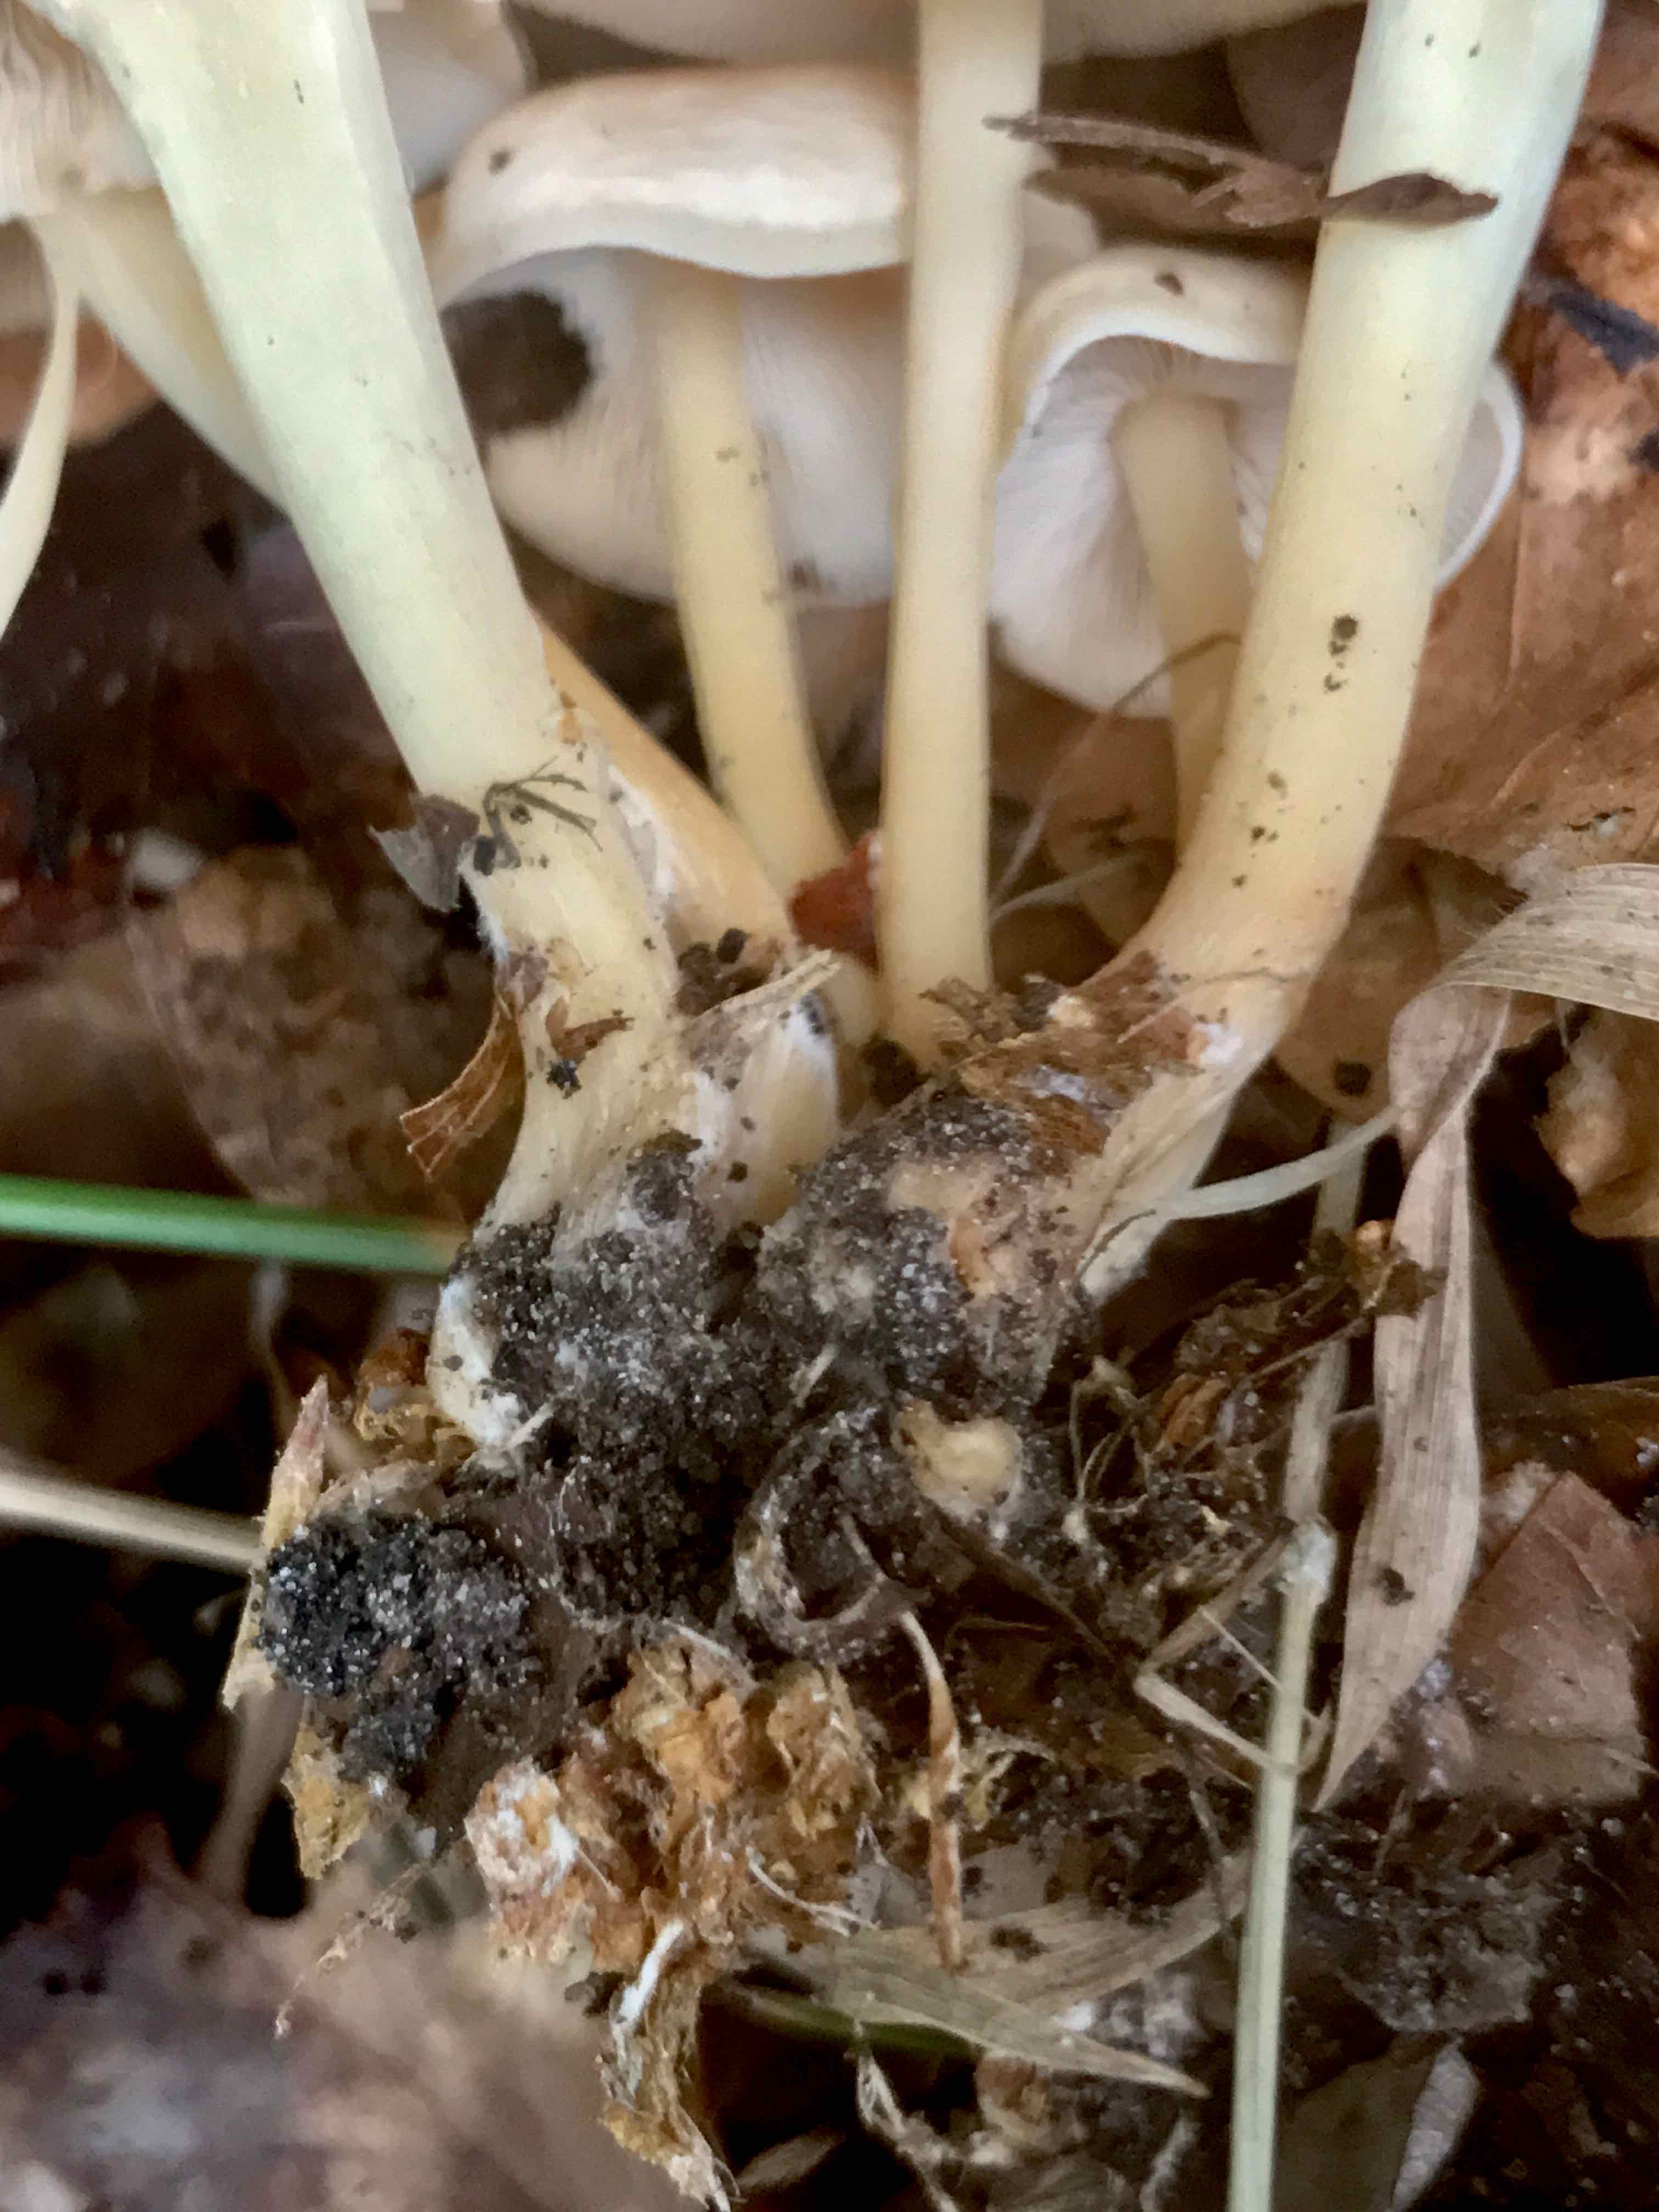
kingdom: Fungi
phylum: Basidiomycota
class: Agaricomycetes
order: Agaricales
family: Omphalotaceae
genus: Gymnopus
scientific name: Gymnopus dryophilus
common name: løv-fladhat
